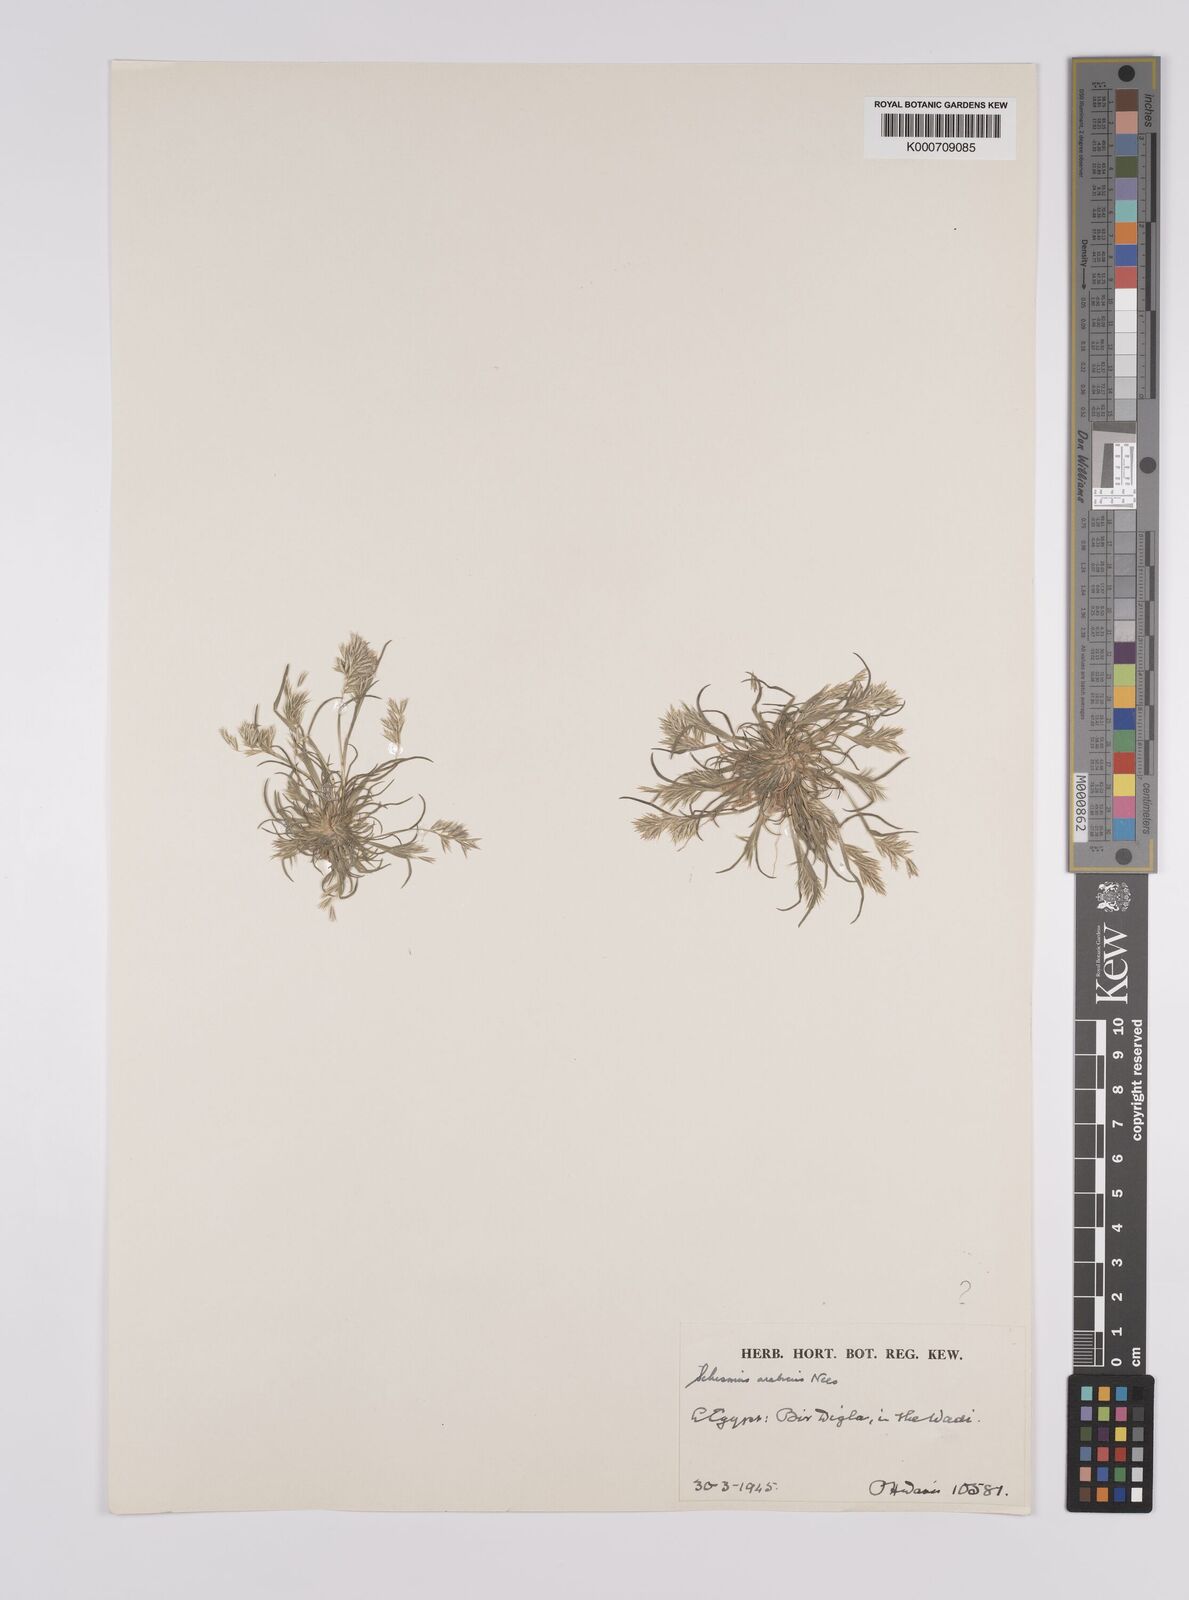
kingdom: Plantae
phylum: Tracheophyta
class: Liliopsida
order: Poales
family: Poaceae
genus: Schismus
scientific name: Schismus arabicus
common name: Arabian schismus
